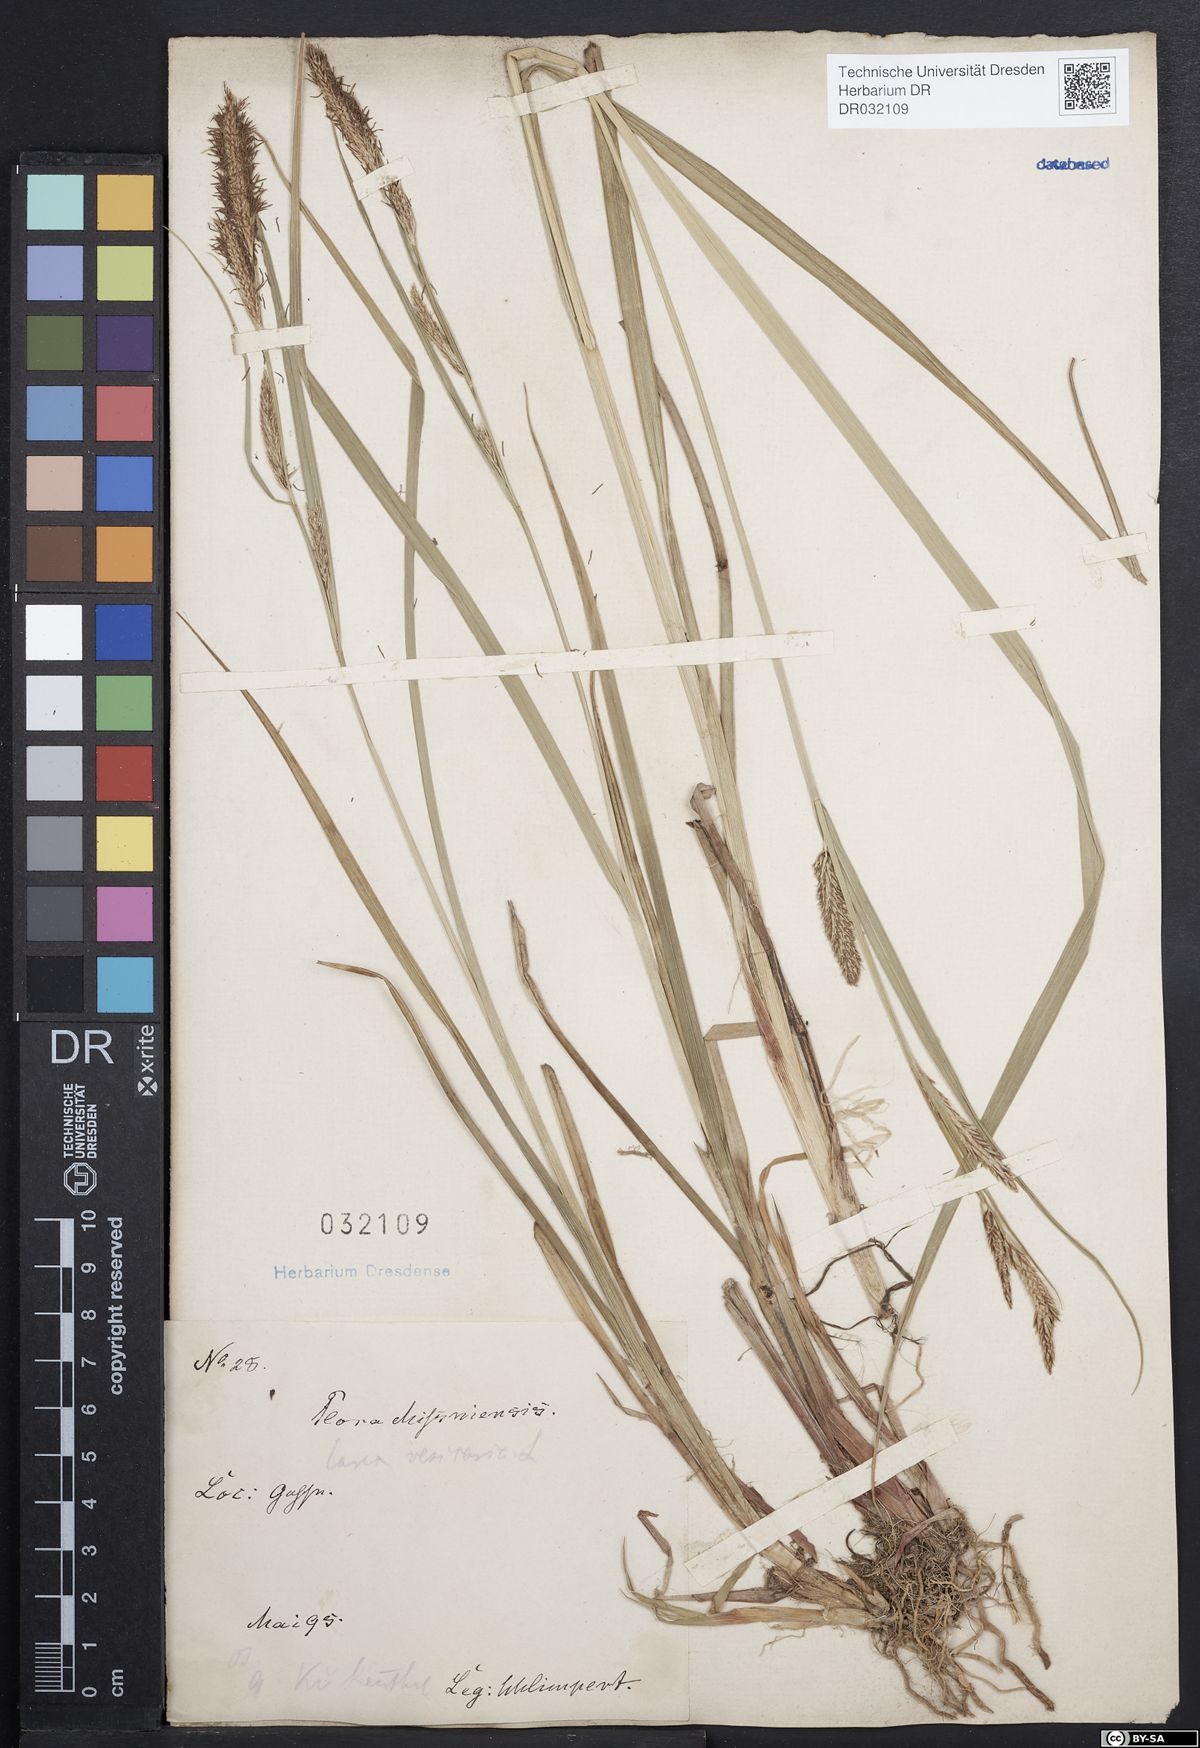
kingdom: Plantae
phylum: Tracheophyta
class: Liliopsida
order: Poales
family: Cyperaceae
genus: Carex
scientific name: Carex vesicaria
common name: Bladder-sedge
